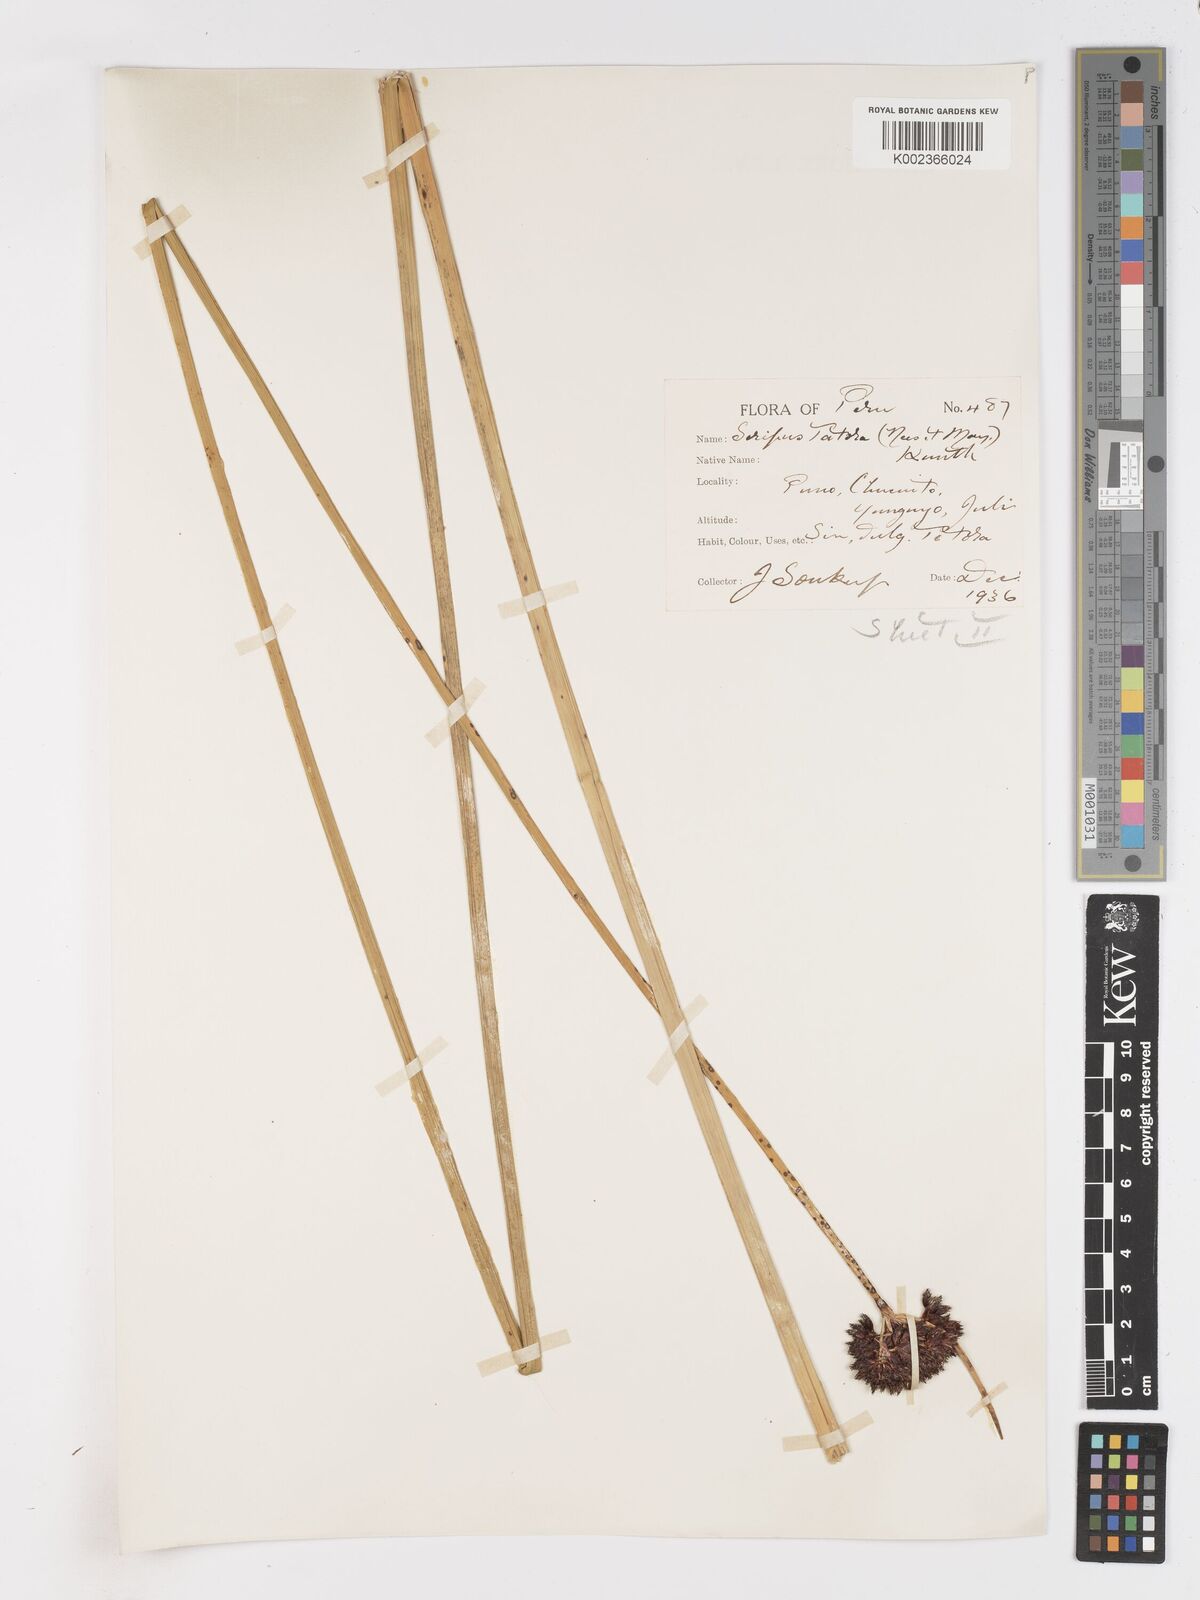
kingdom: Plantae
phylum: Tracheophyta
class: Liliopsida
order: Poales
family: Cyperaceae
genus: Schoenoplectus
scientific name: Schoenoplectus californicus
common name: California bulrush
